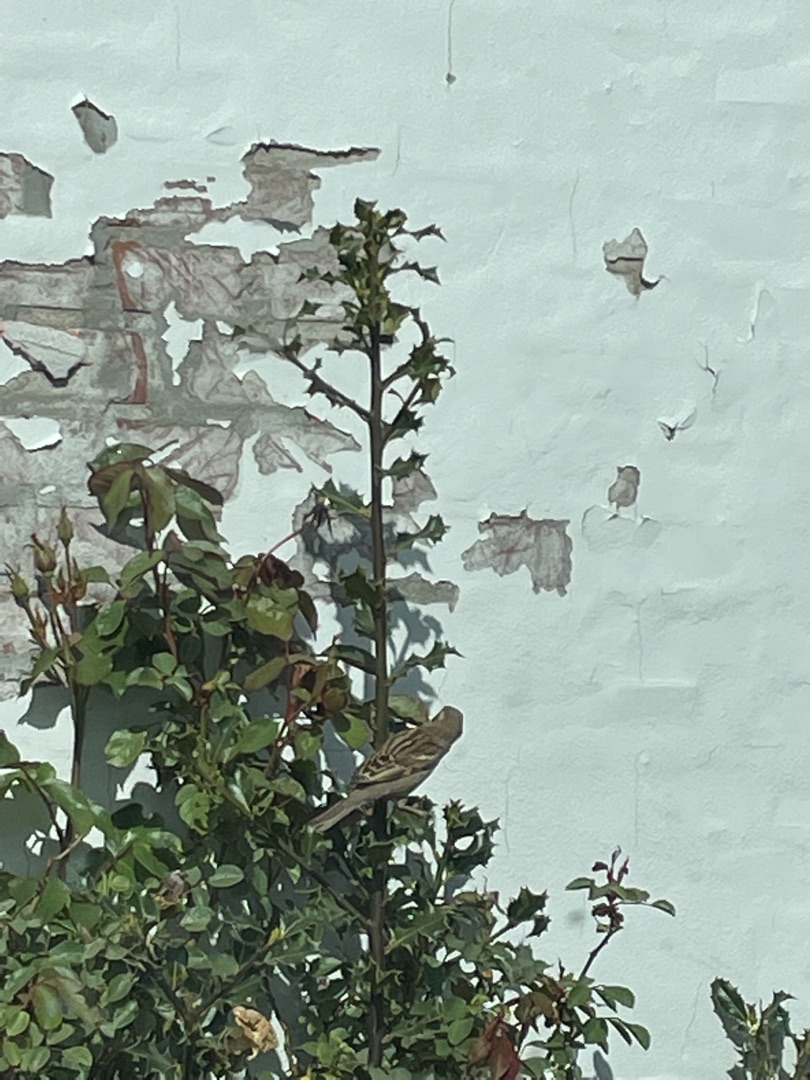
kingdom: Animalia
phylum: Chordata
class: Aves
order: Passeriformes
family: Passeridae
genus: Passer
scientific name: Passer domesticus
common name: Gråspurv
